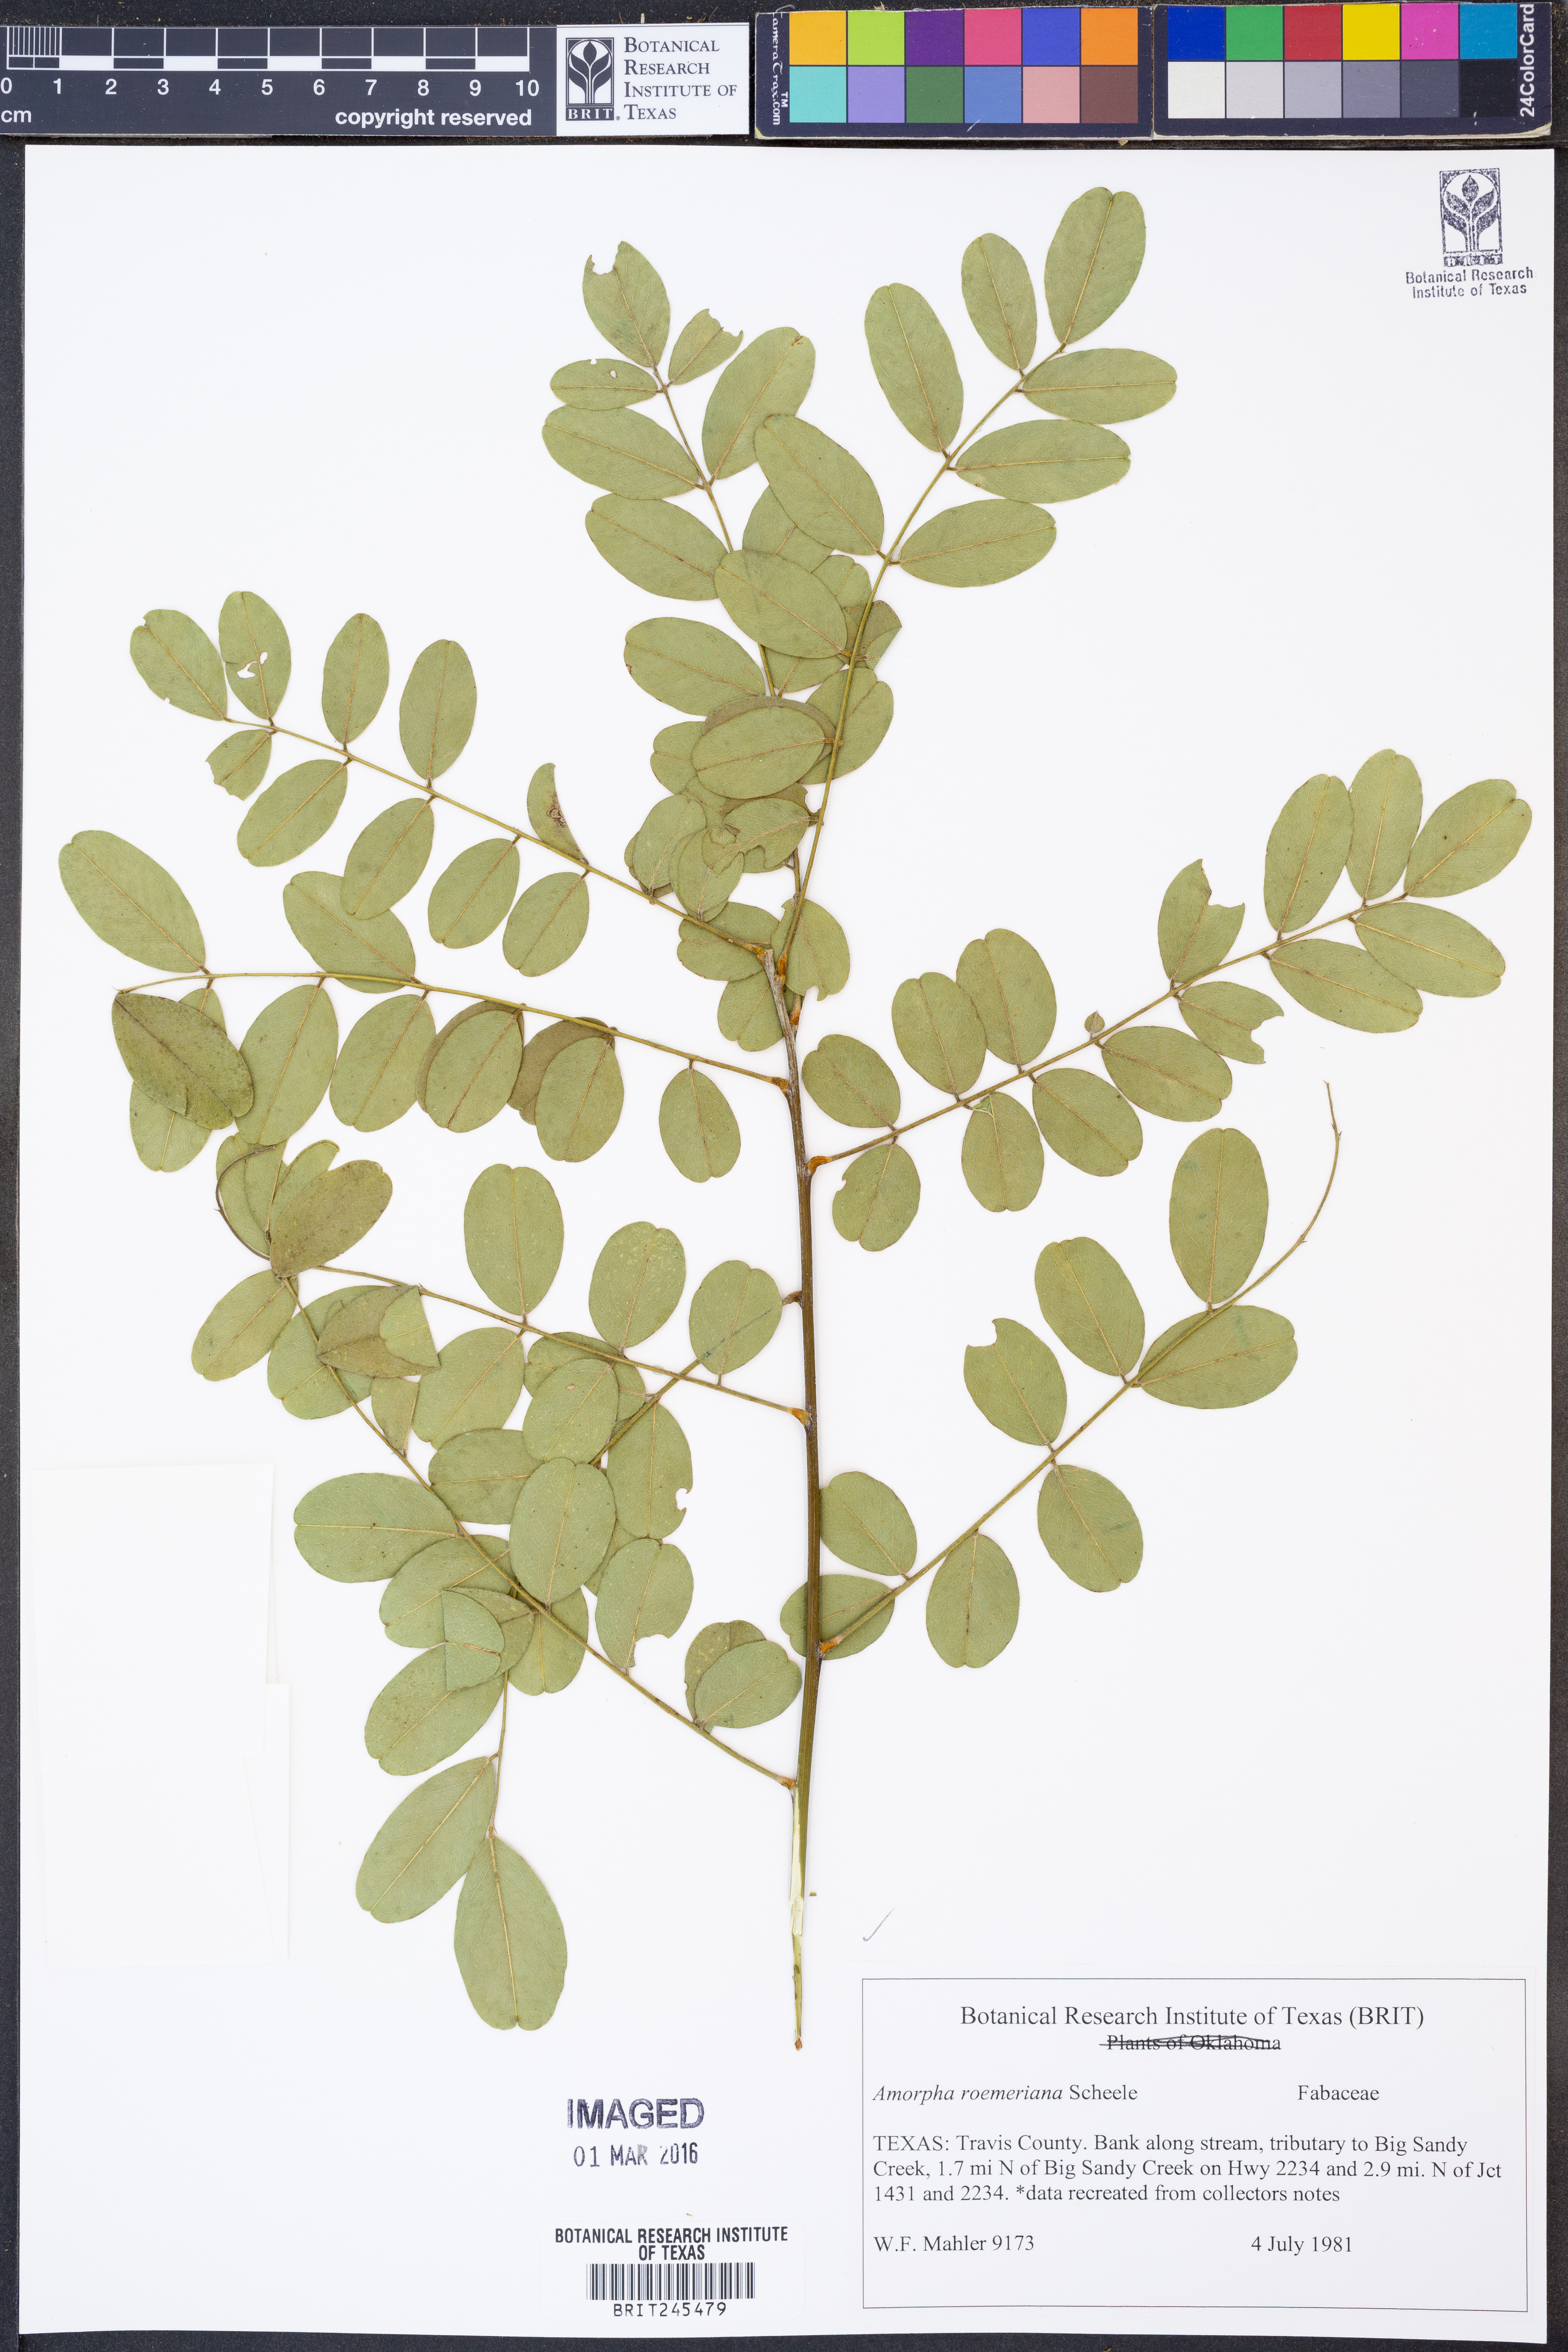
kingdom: Plantae
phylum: Tracheophyta
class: Magnoliopsida
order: Fabales
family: Fabaceae
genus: Amorpha
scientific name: Amorpha roemeriana
